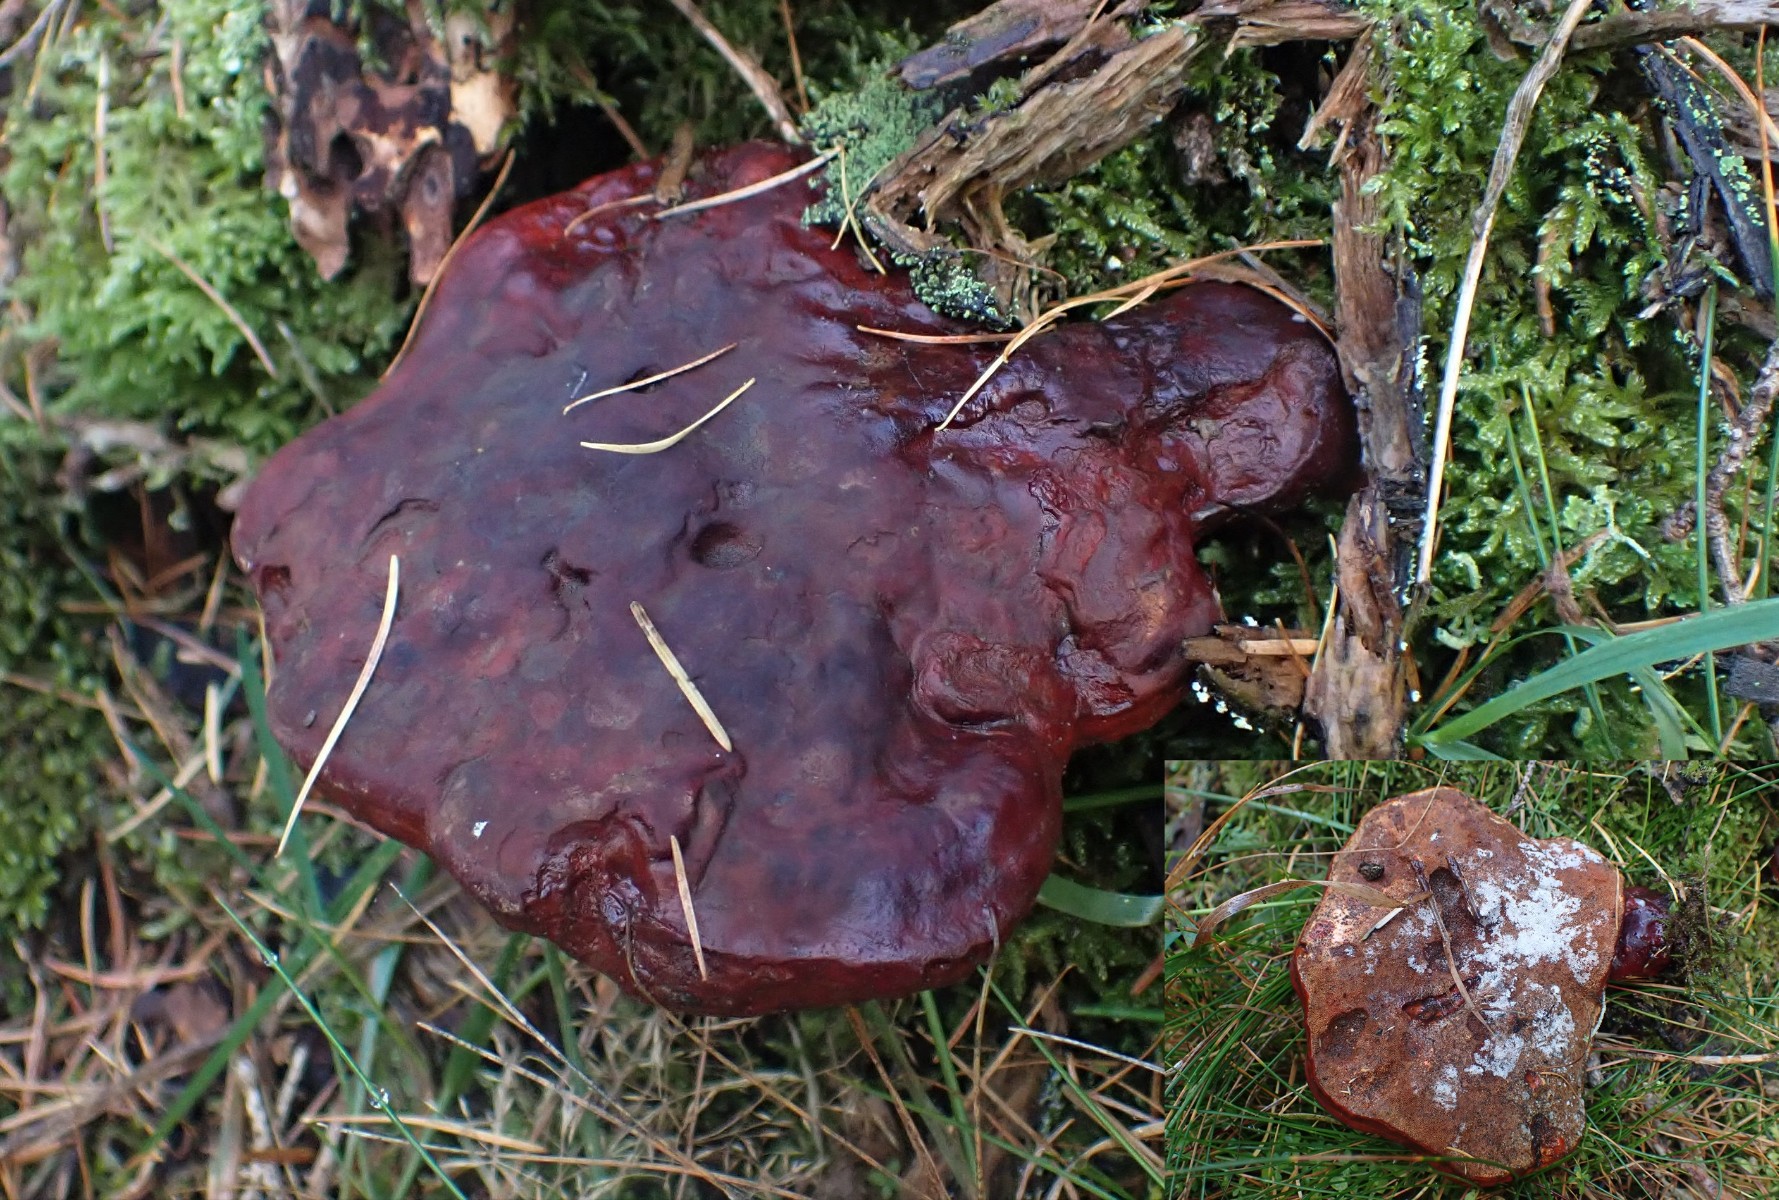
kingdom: Fungi
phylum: Basidiomycota
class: Agaricomycetes
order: Polyporales
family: Polyporaceae
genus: Ganoderma
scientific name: Ganoderma lucidum
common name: skinnende lakporesvamp
